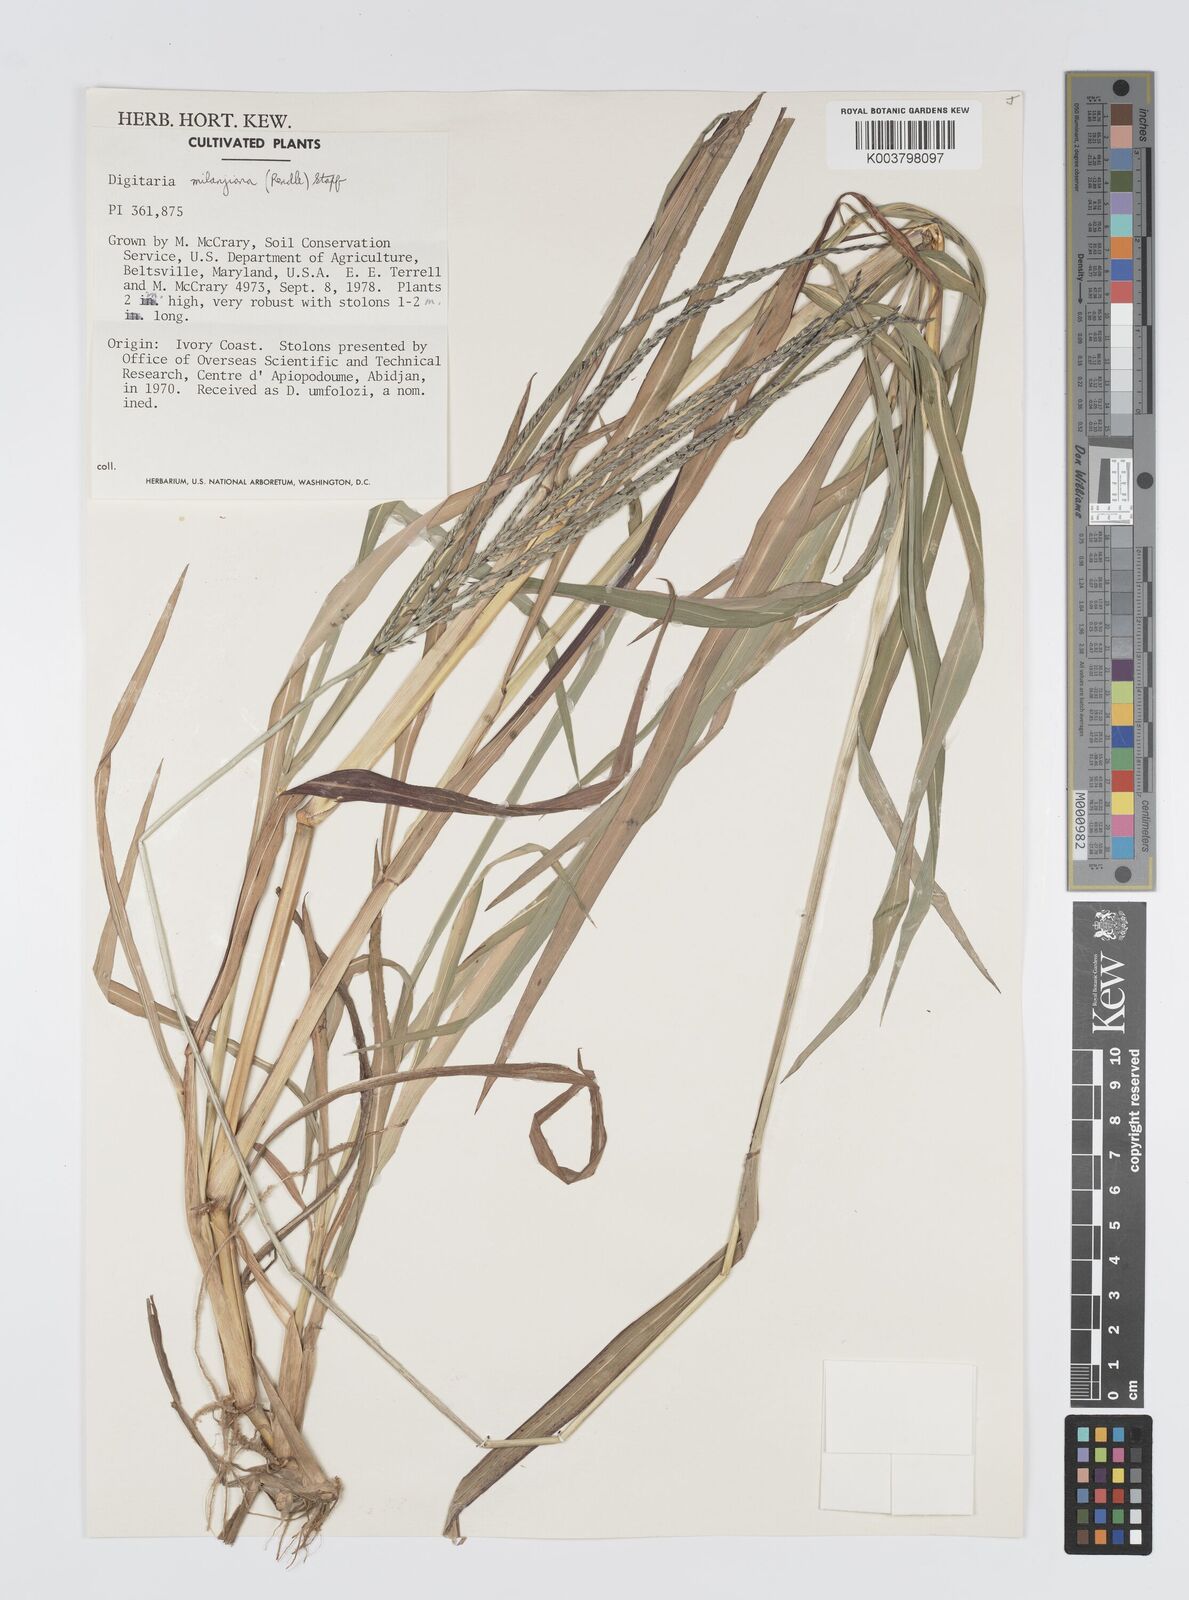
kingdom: Plantae
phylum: Tracheophyta
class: Liliopsida
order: Poales
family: Poaceae
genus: Digitaria
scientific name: Digitaria milanjiana
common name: Madagascar crabgrass
